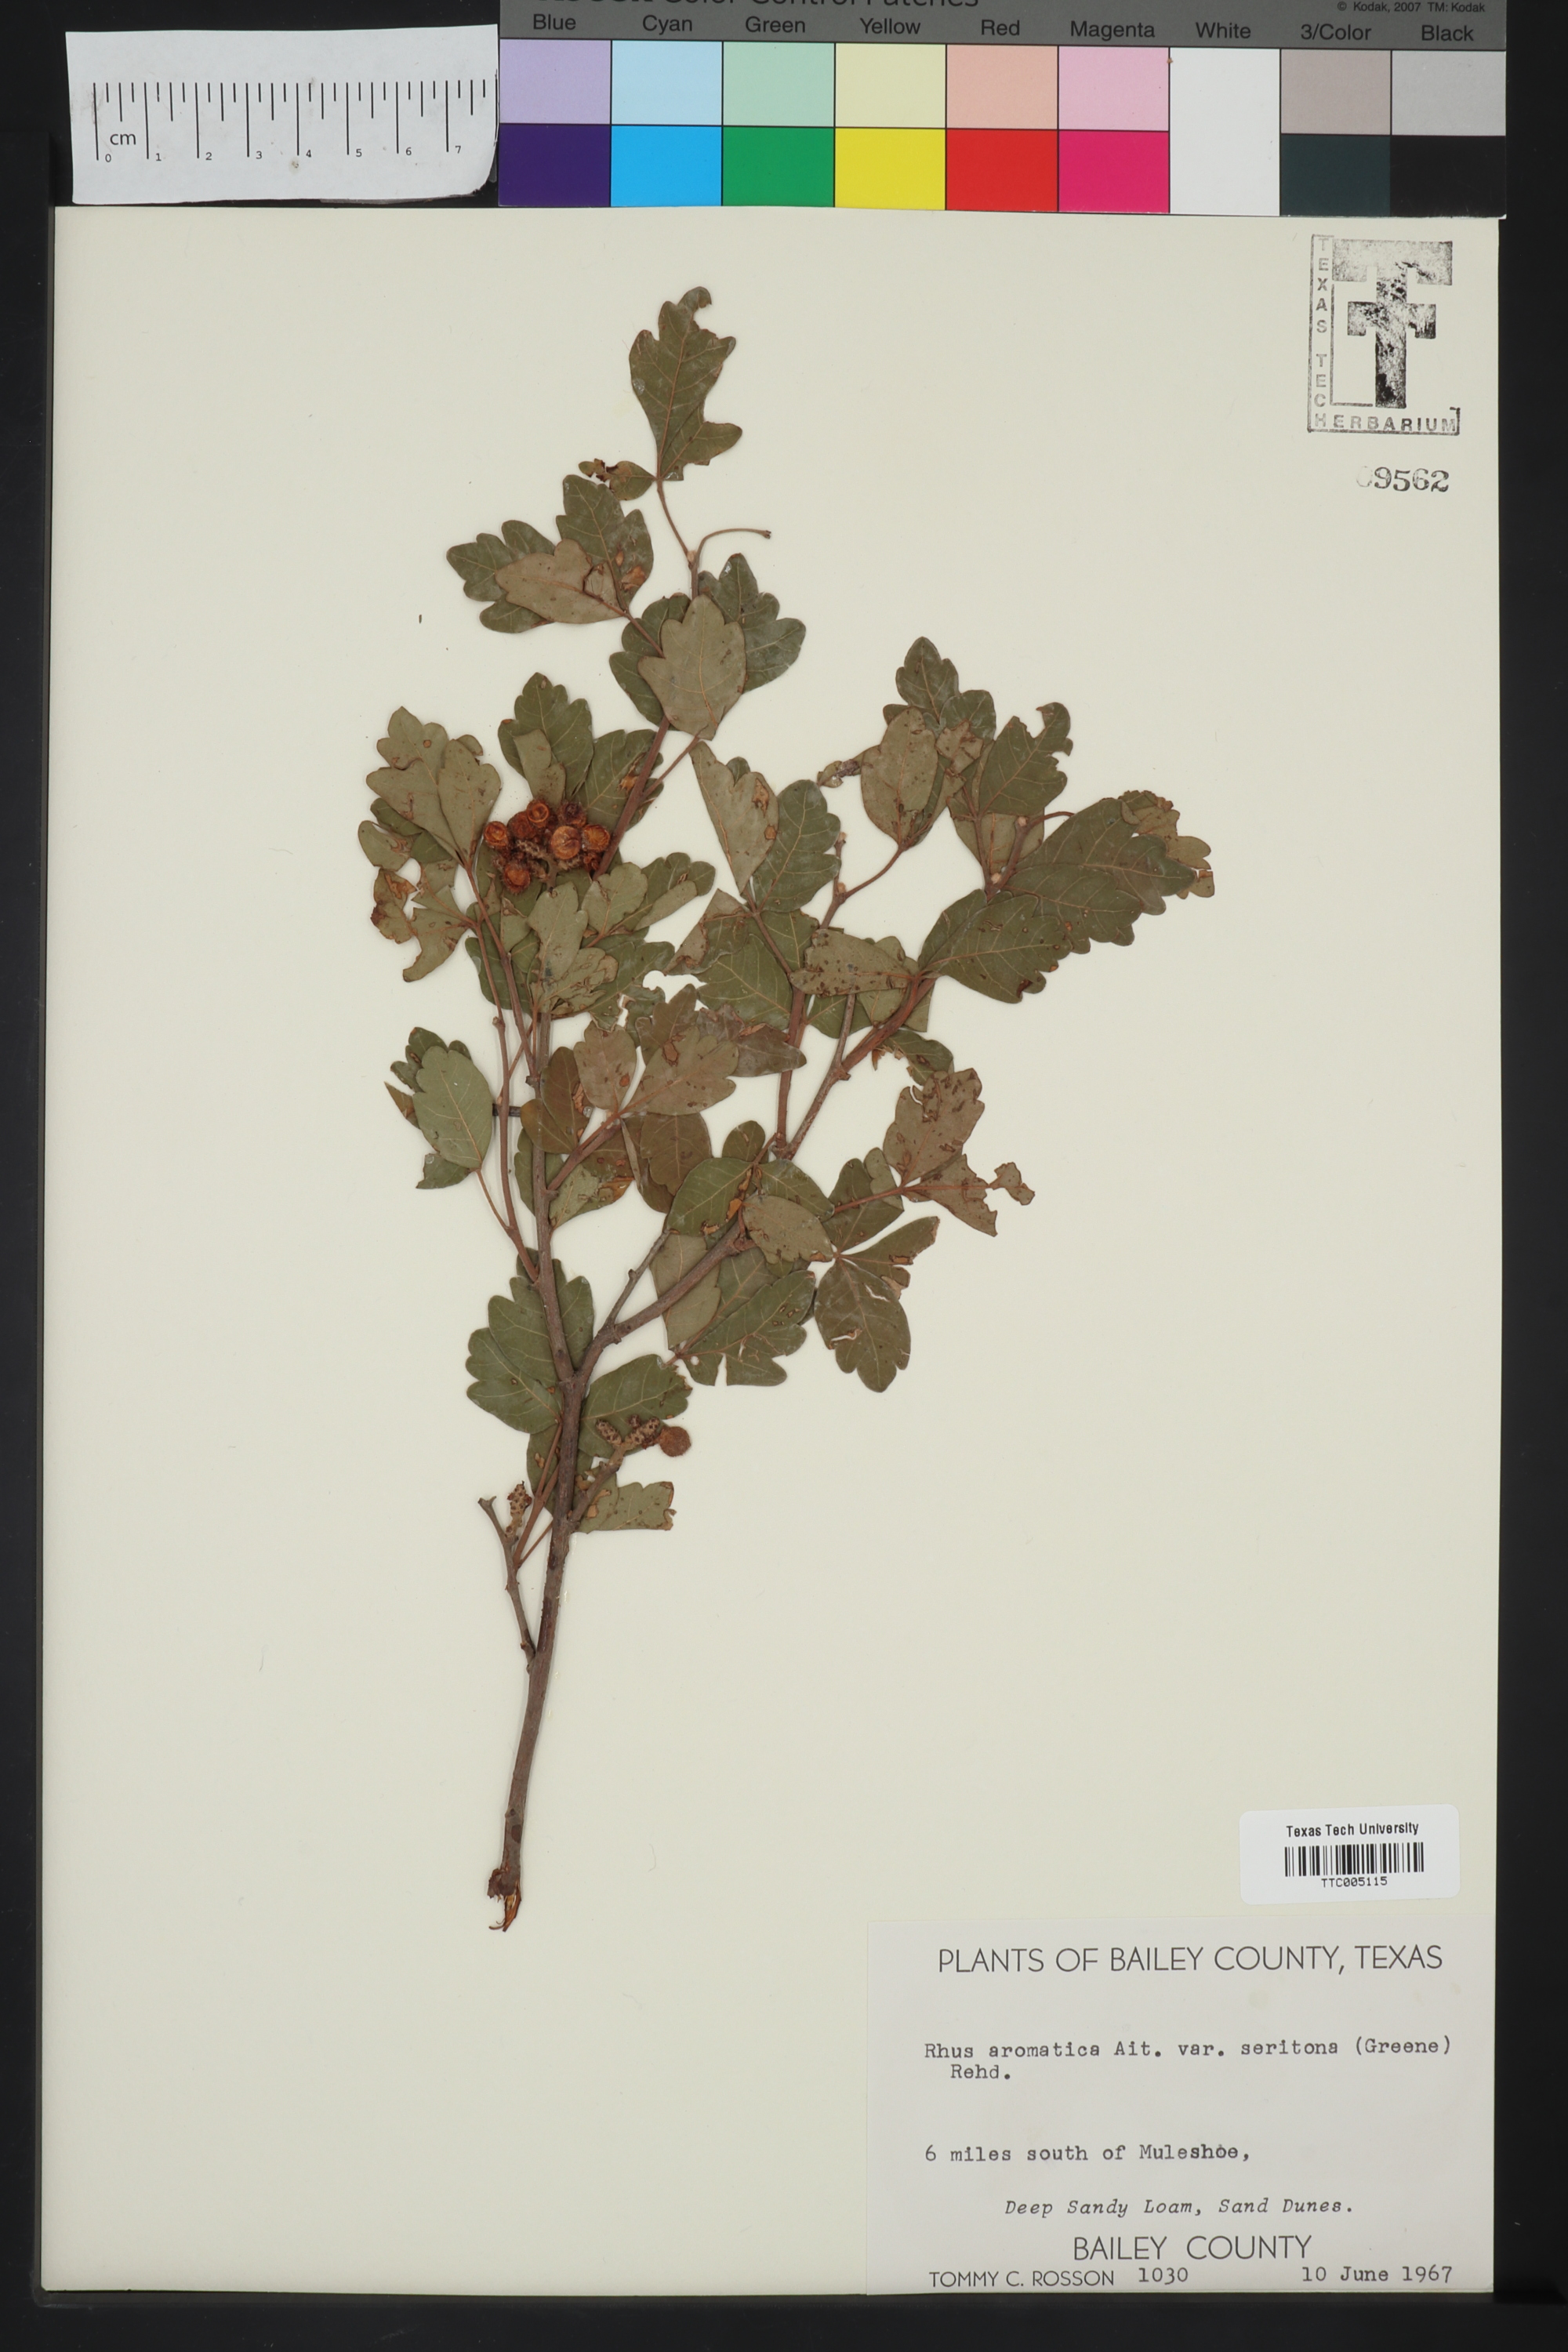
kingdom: Plantae
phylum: Tracheophyta
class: Magnoliopsida
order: Sapindales
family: Anacardiaceae
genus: Rhus
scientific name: Rhus aromatica
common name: Aromatic sumac
